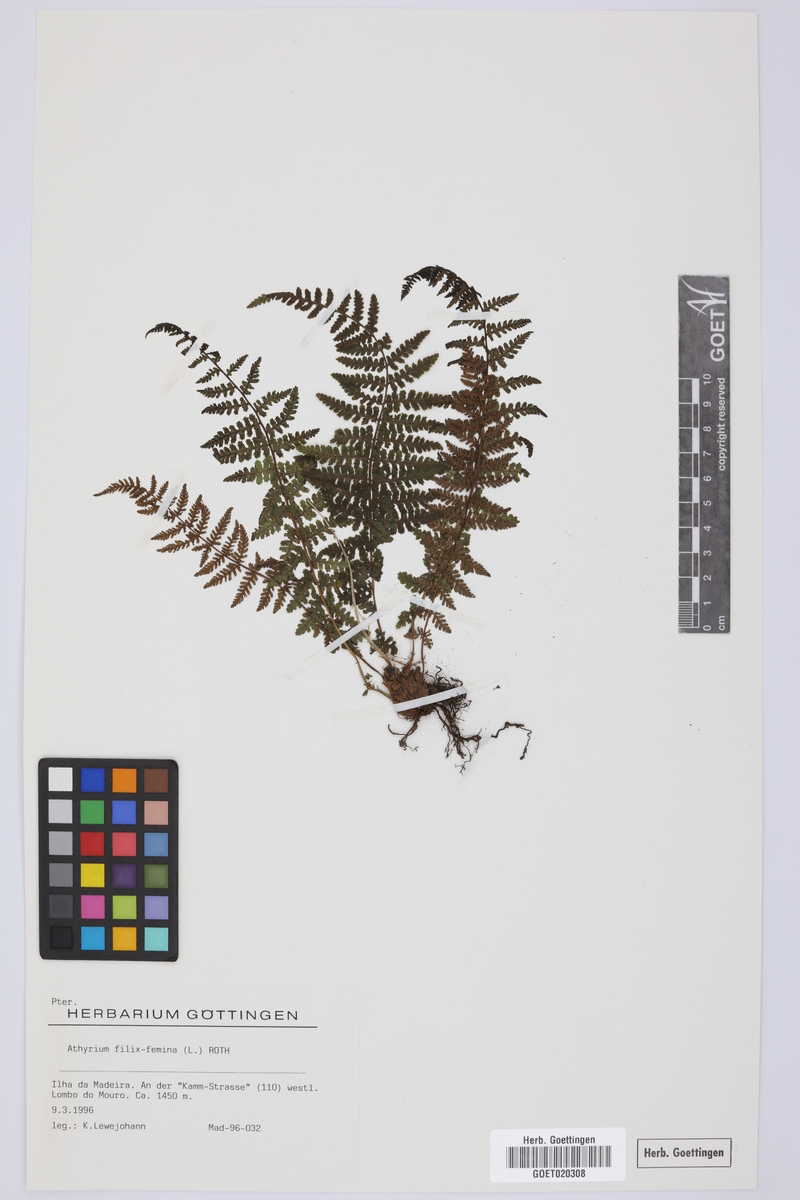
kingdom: Plantae
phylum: Tracheophyta
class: Polypodiopsida
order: Polypodiales
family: Athyriaceae
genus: Athyrium
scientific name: Athyrium filix-femina
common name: Lady fern
